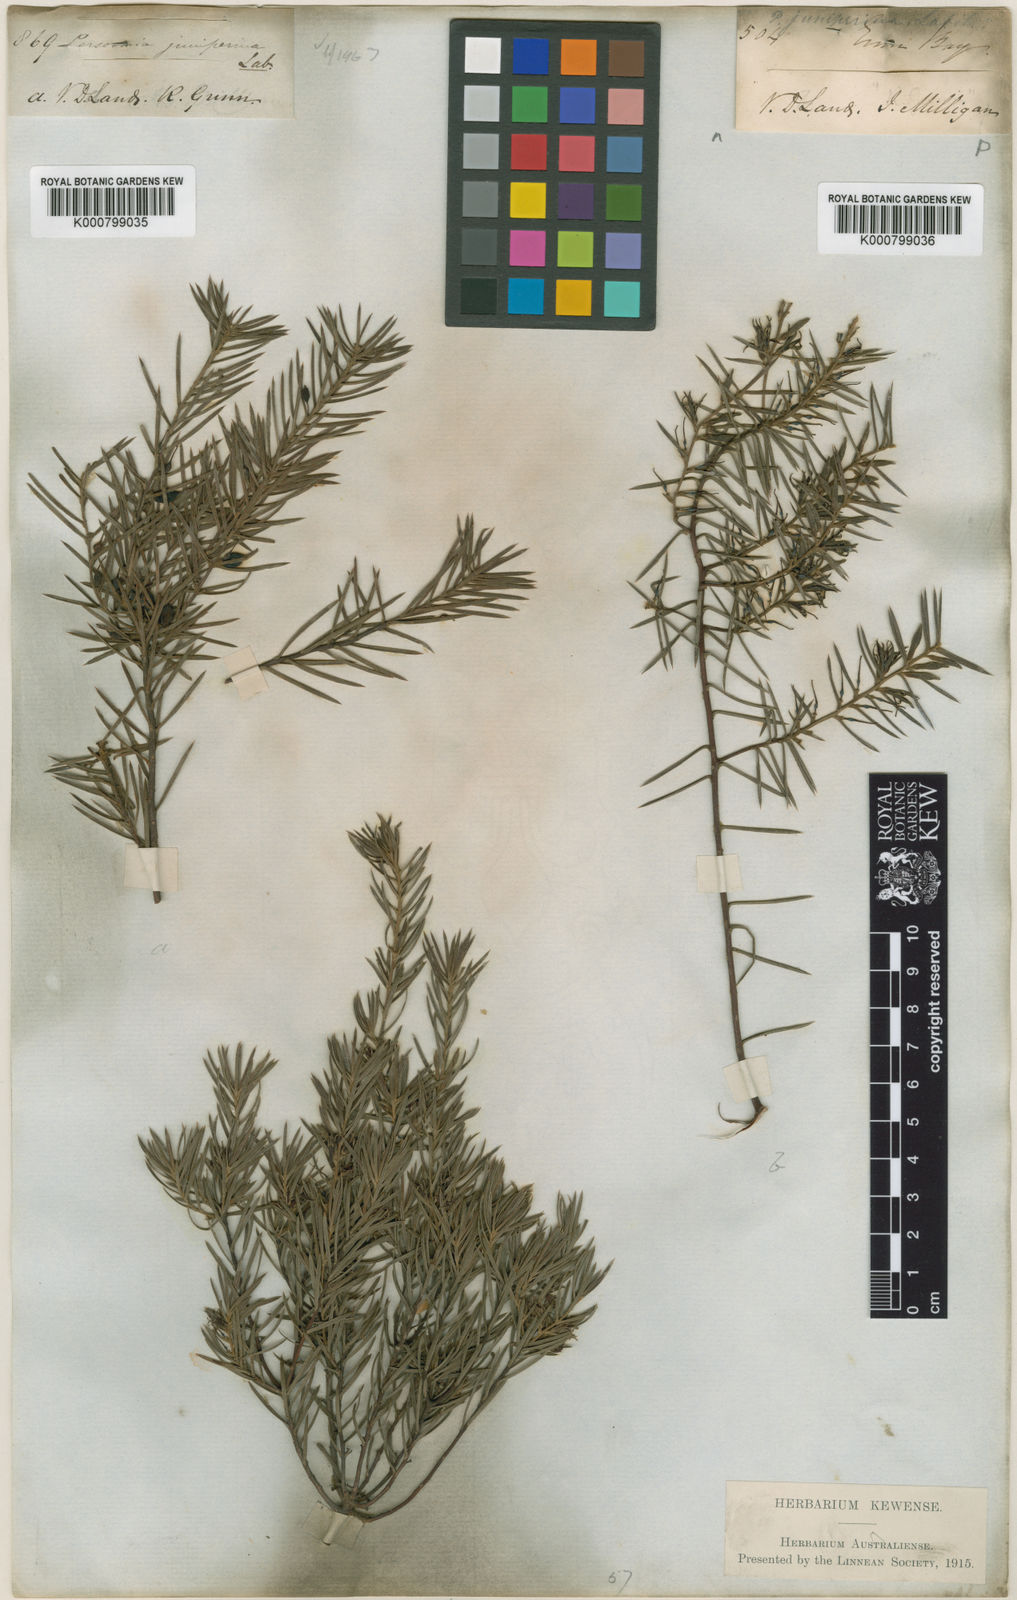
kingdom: Plantae
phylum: Tracheophyta
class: Magnoliopsida
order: Proteales
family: Proteaceae
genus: Persoonia
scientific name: Persoonia juniperina
